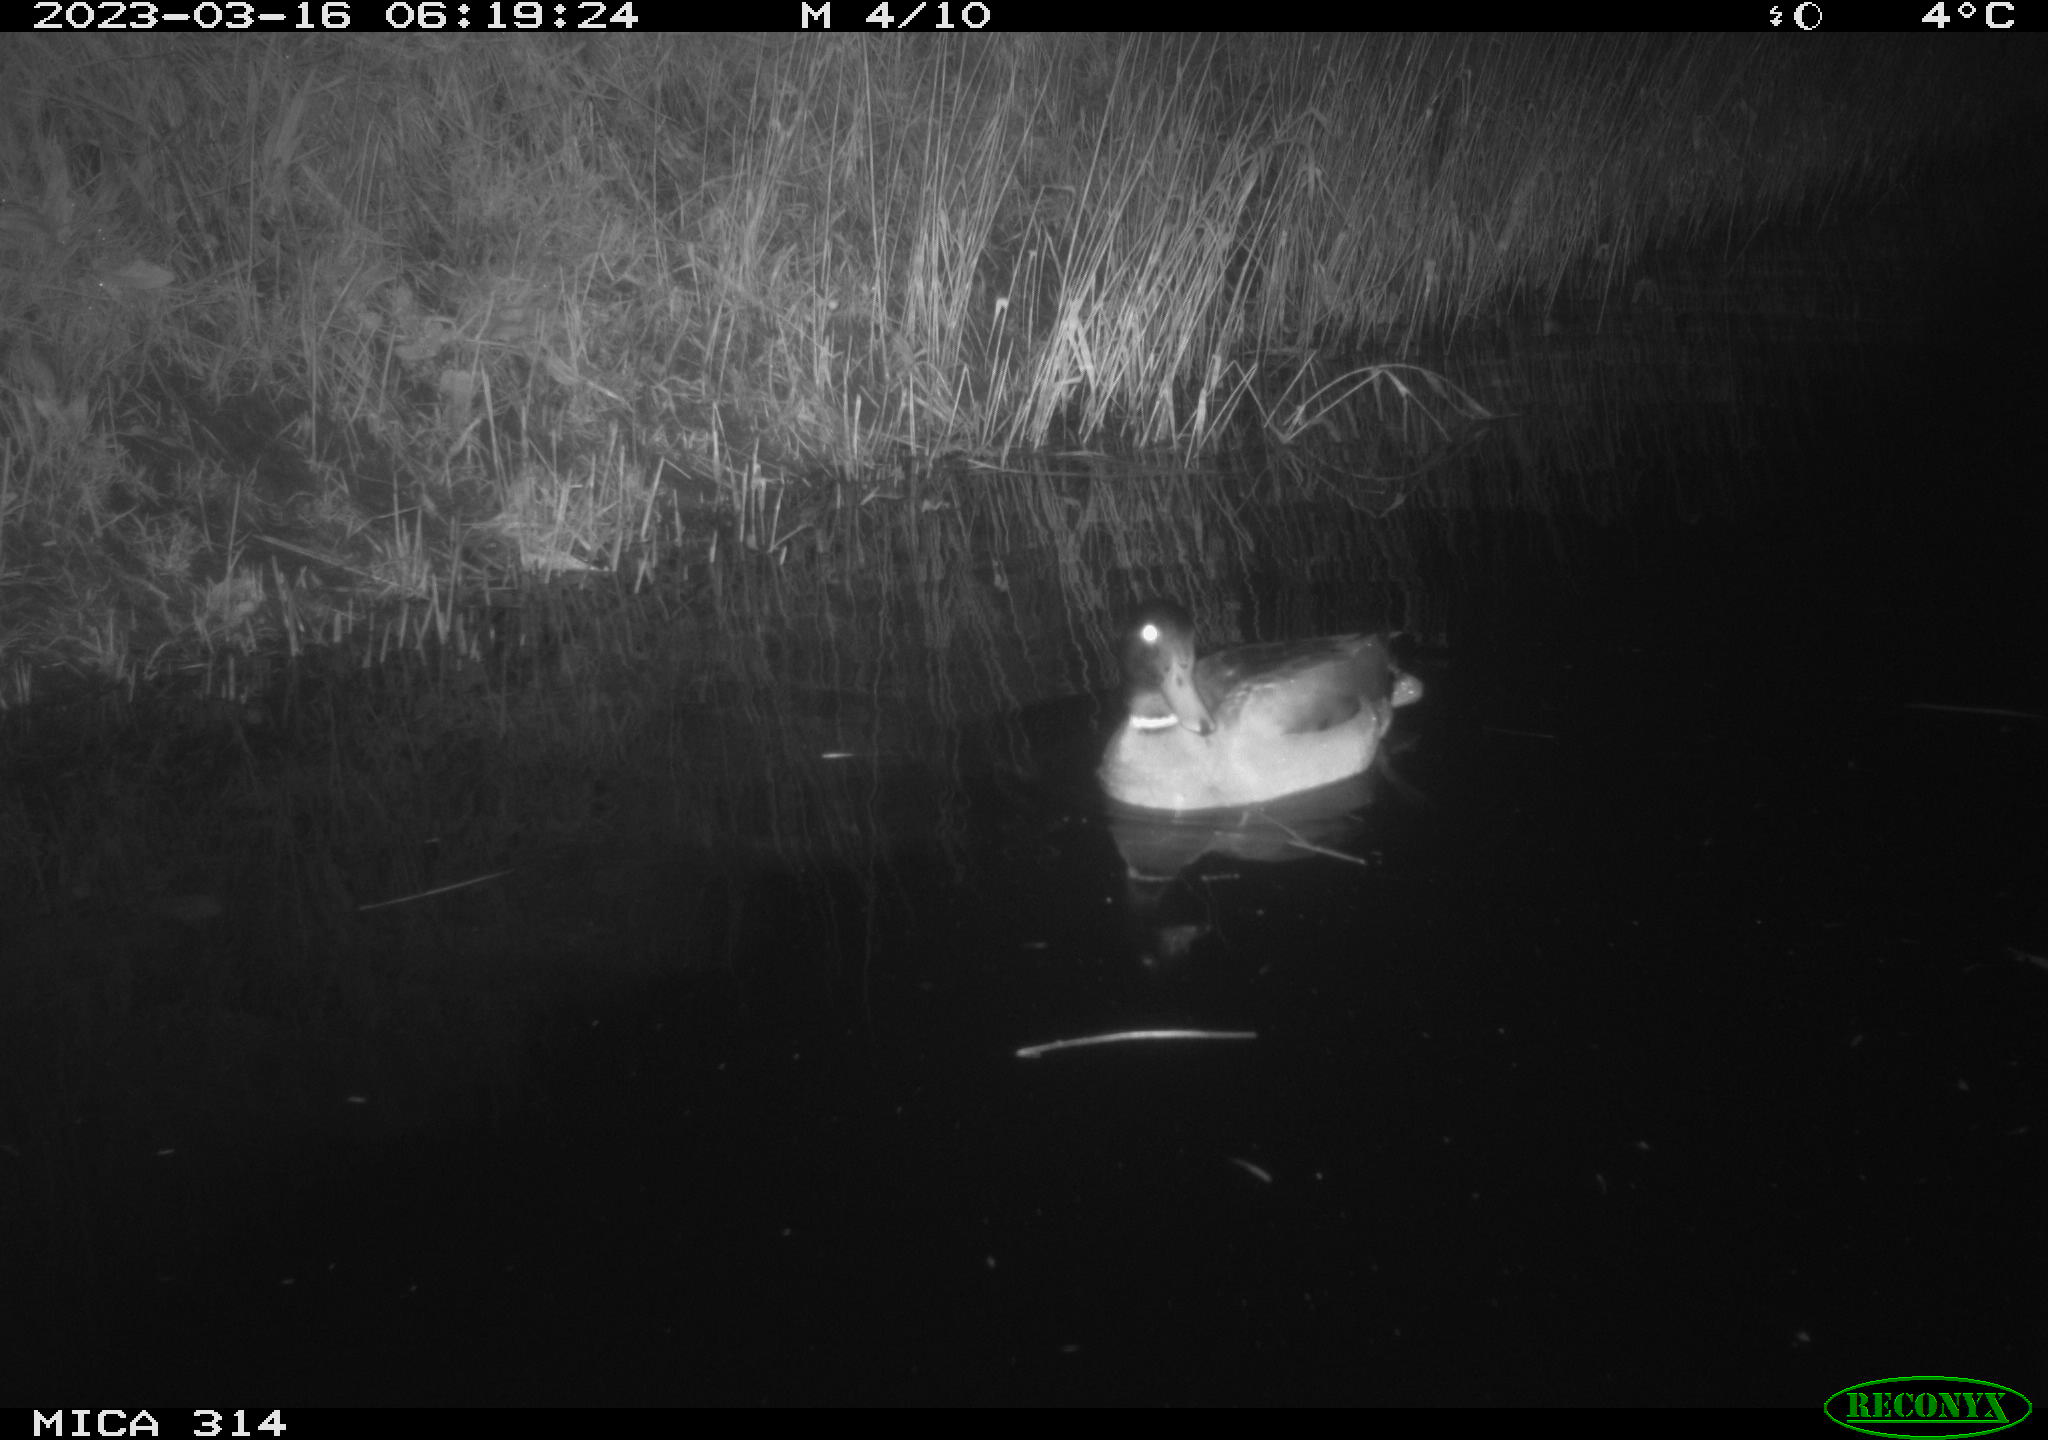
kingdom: Animalia
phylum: Chordata
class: Aves
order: Anseriformes
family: Anatidae
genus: Anas
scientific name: Anas
